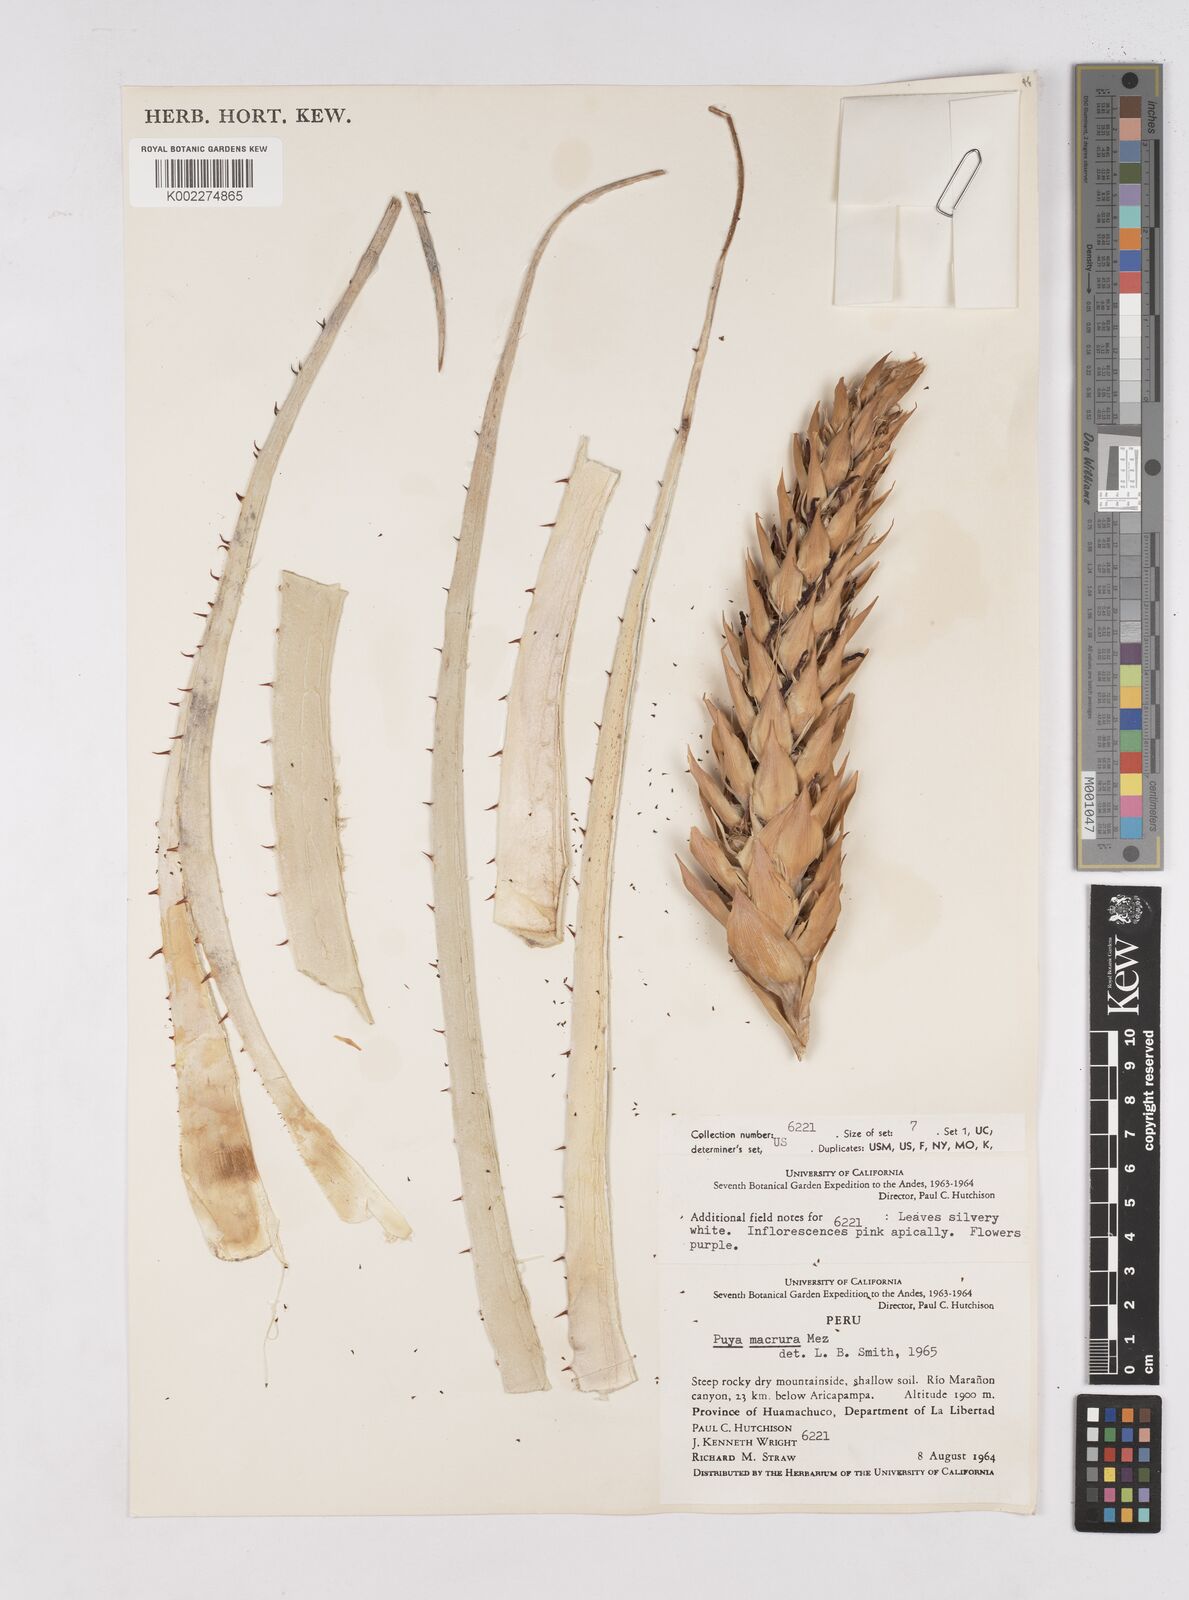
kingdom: Plantae
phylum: Tracheophyta
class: Liliopsida
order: Poales
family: Bromeliaceae
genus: Puya
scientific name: Puya macrura
